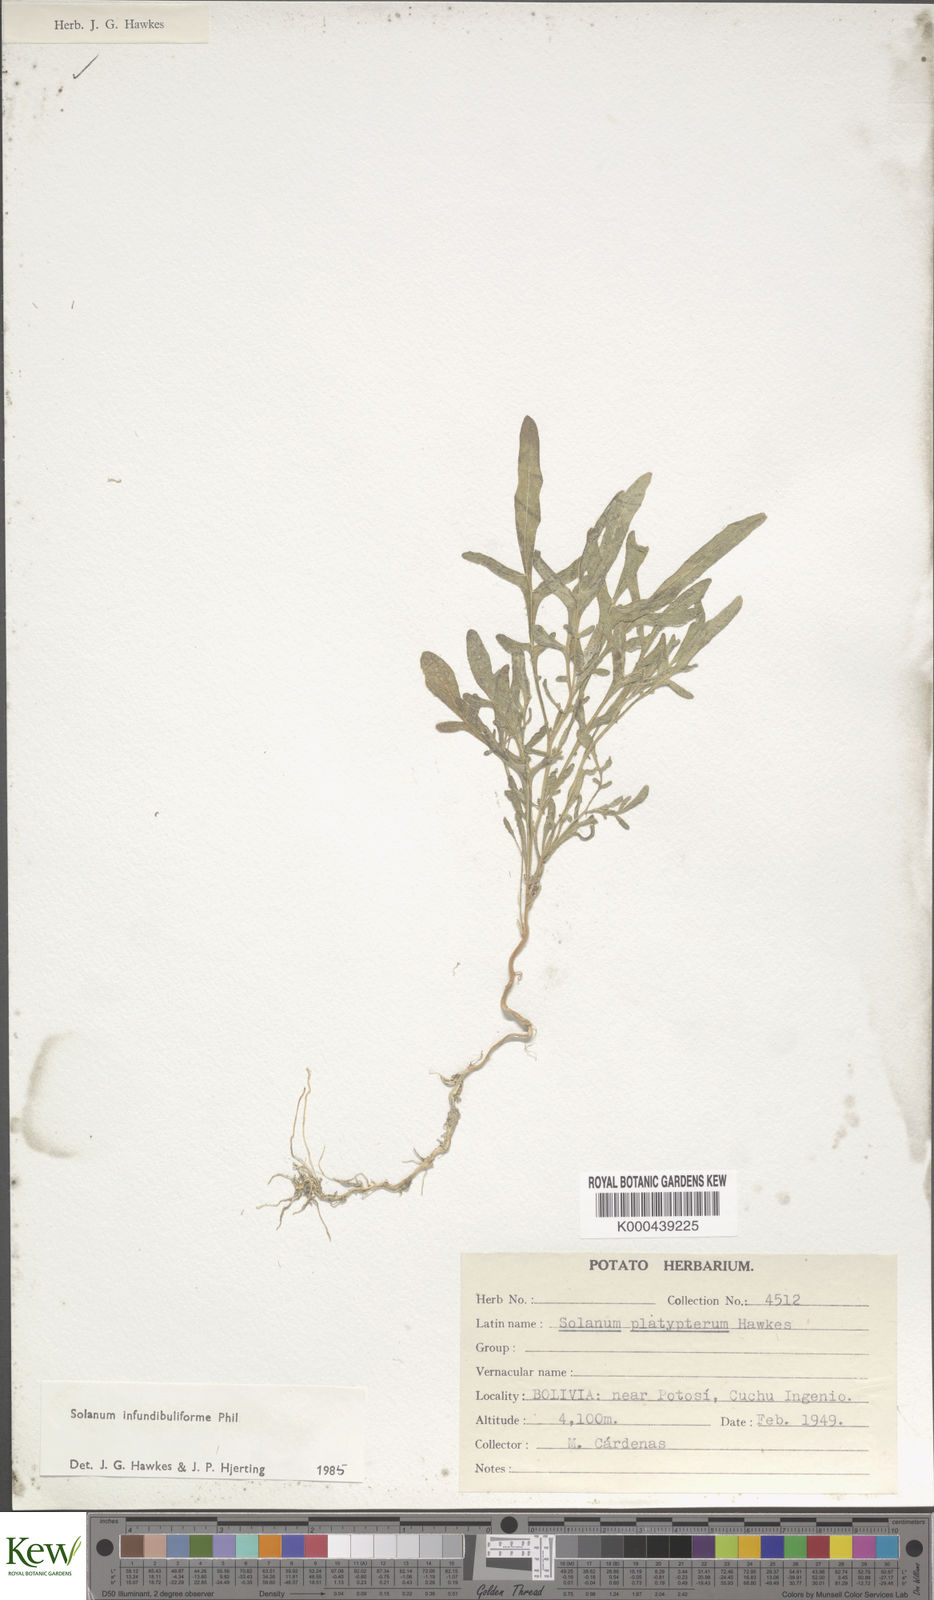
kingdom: Plantae
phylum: Tracheophyta
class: Magnoliopsida
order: Solanales
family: Solanaceae
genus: Solanum
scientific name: Solanum infundibuliforme
